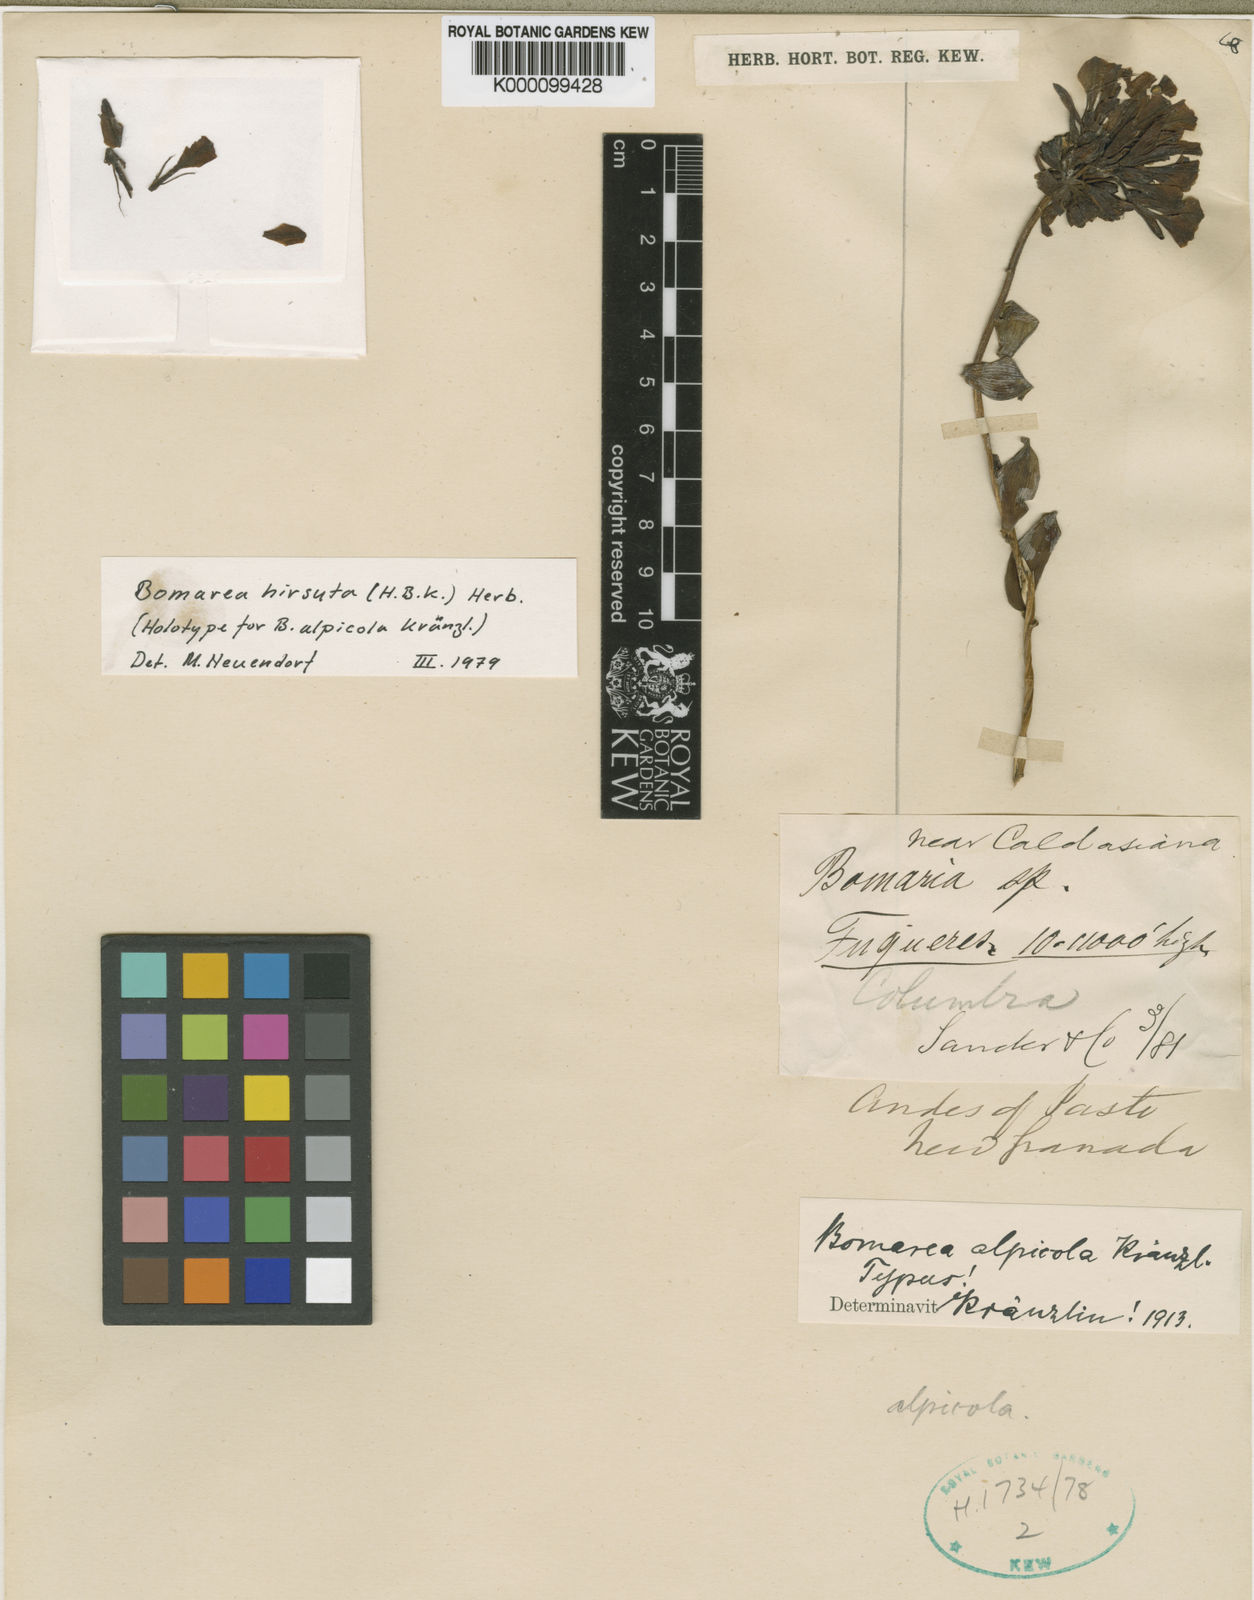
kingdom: Plantae
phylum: Tracheophyta
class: Liliopsida
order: Liliales
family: Alstroemeriaceae
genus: Bomarea
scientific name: Bomarea hirsuta
